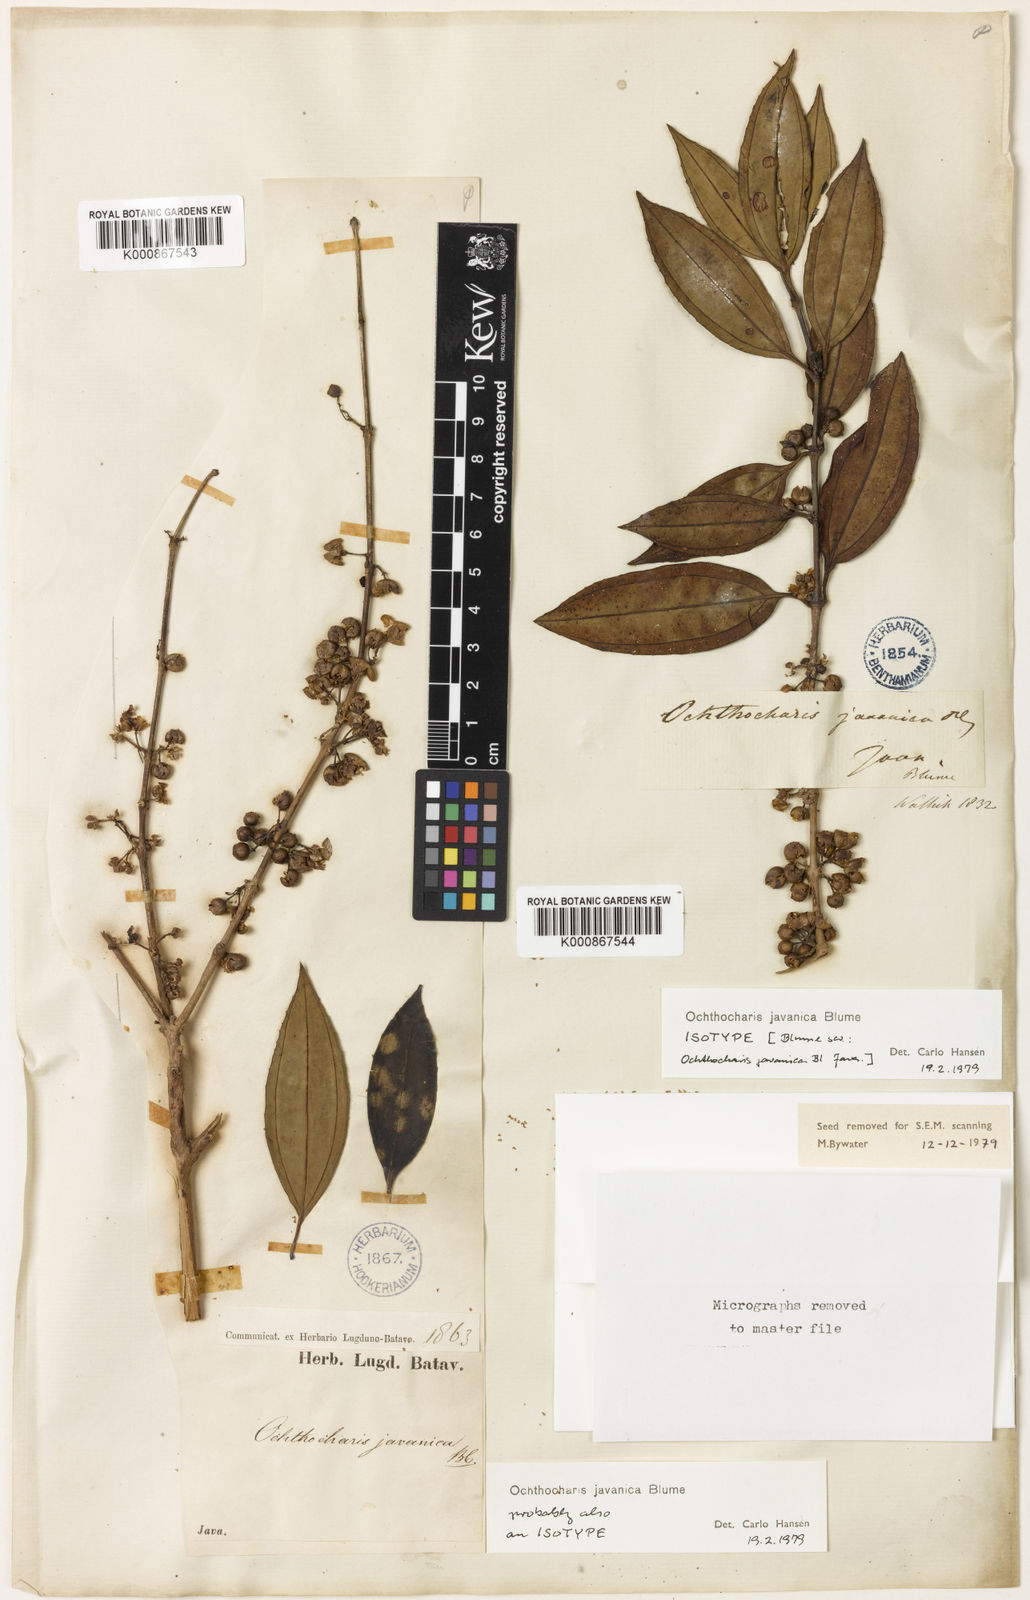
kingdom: Plantae
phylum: Tracheophyta
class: Magnoliopsida
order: Myrtales
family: Melastomataceae
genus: Ochthocharis
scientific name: Ochthocharis javanica
